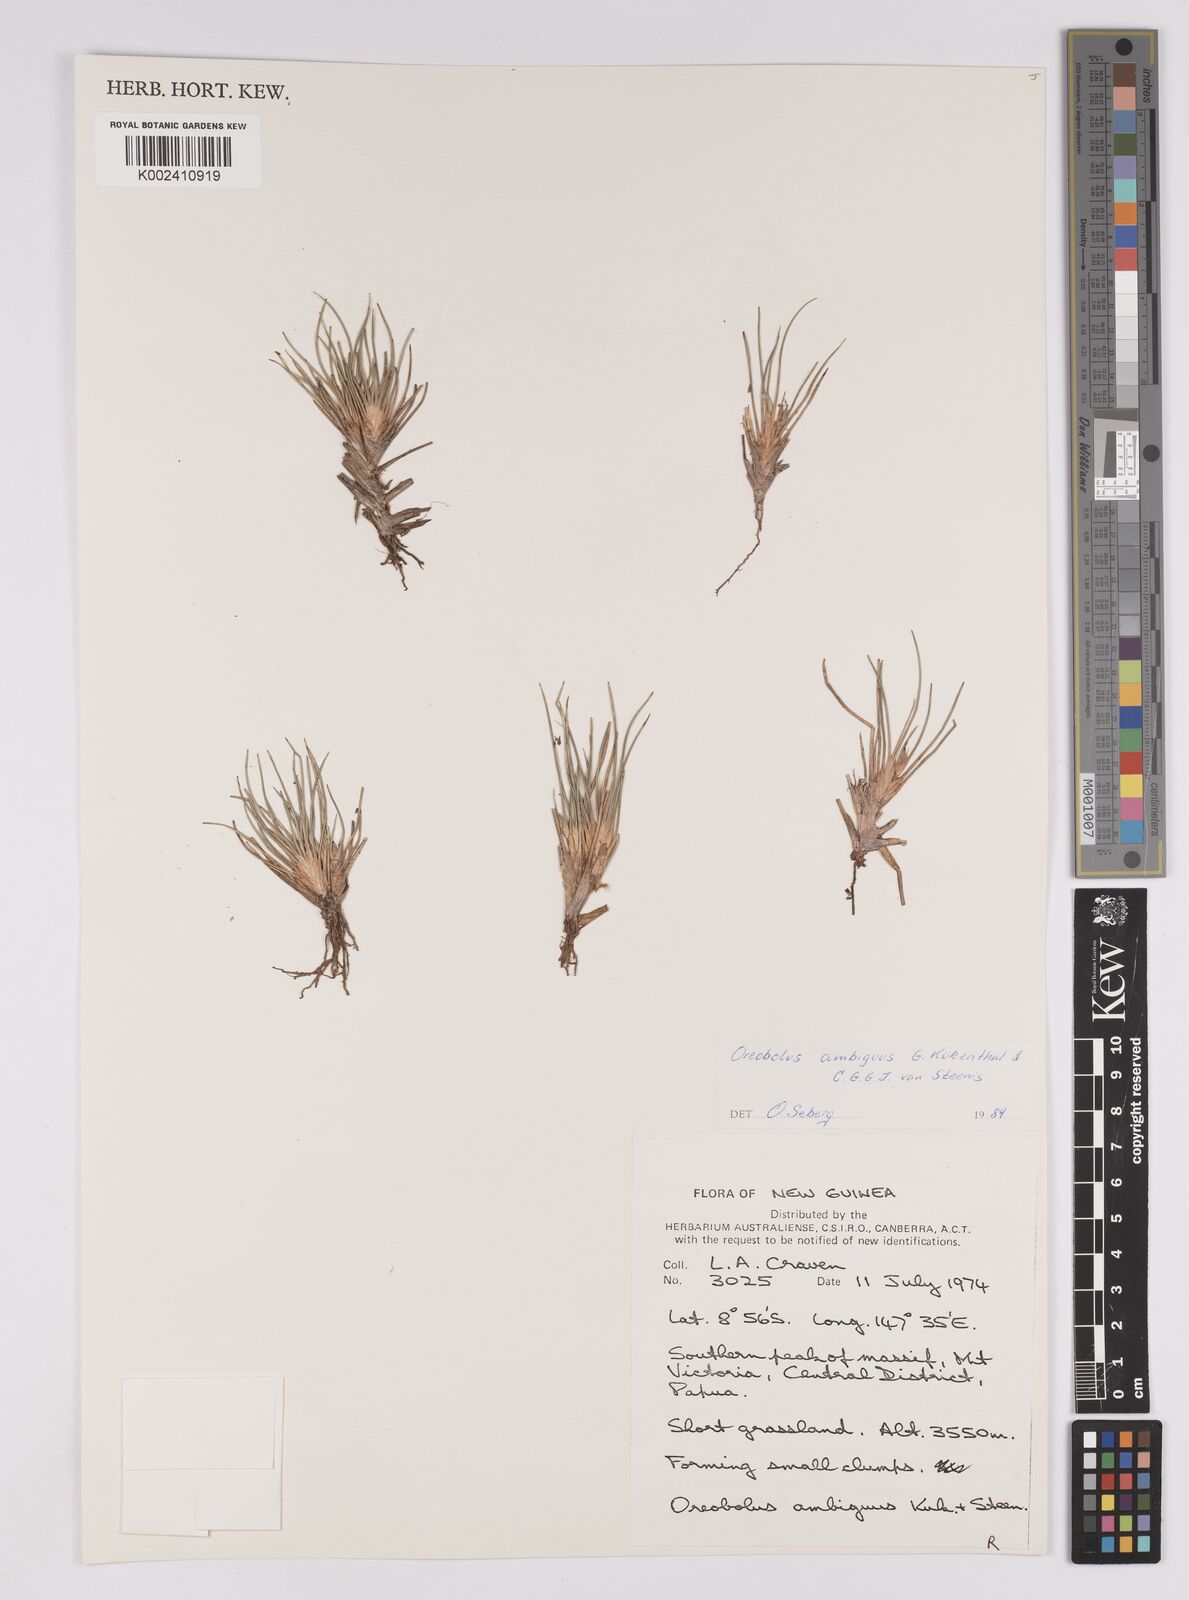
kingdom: Plantae
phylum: Tracheophyta
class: Liliopsida
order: Poales
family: Cyperaceae
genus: Oreobolus
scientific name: Oreobolus ambiguus
